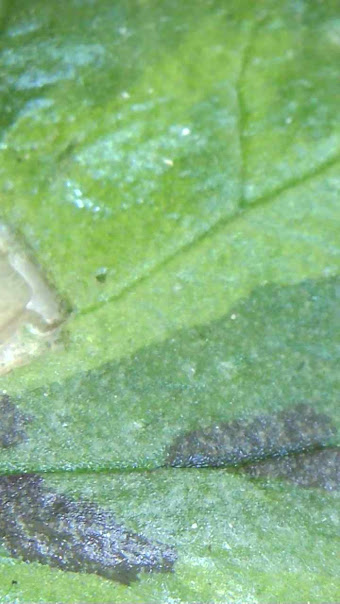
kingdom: Fungi
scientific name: Fungi
